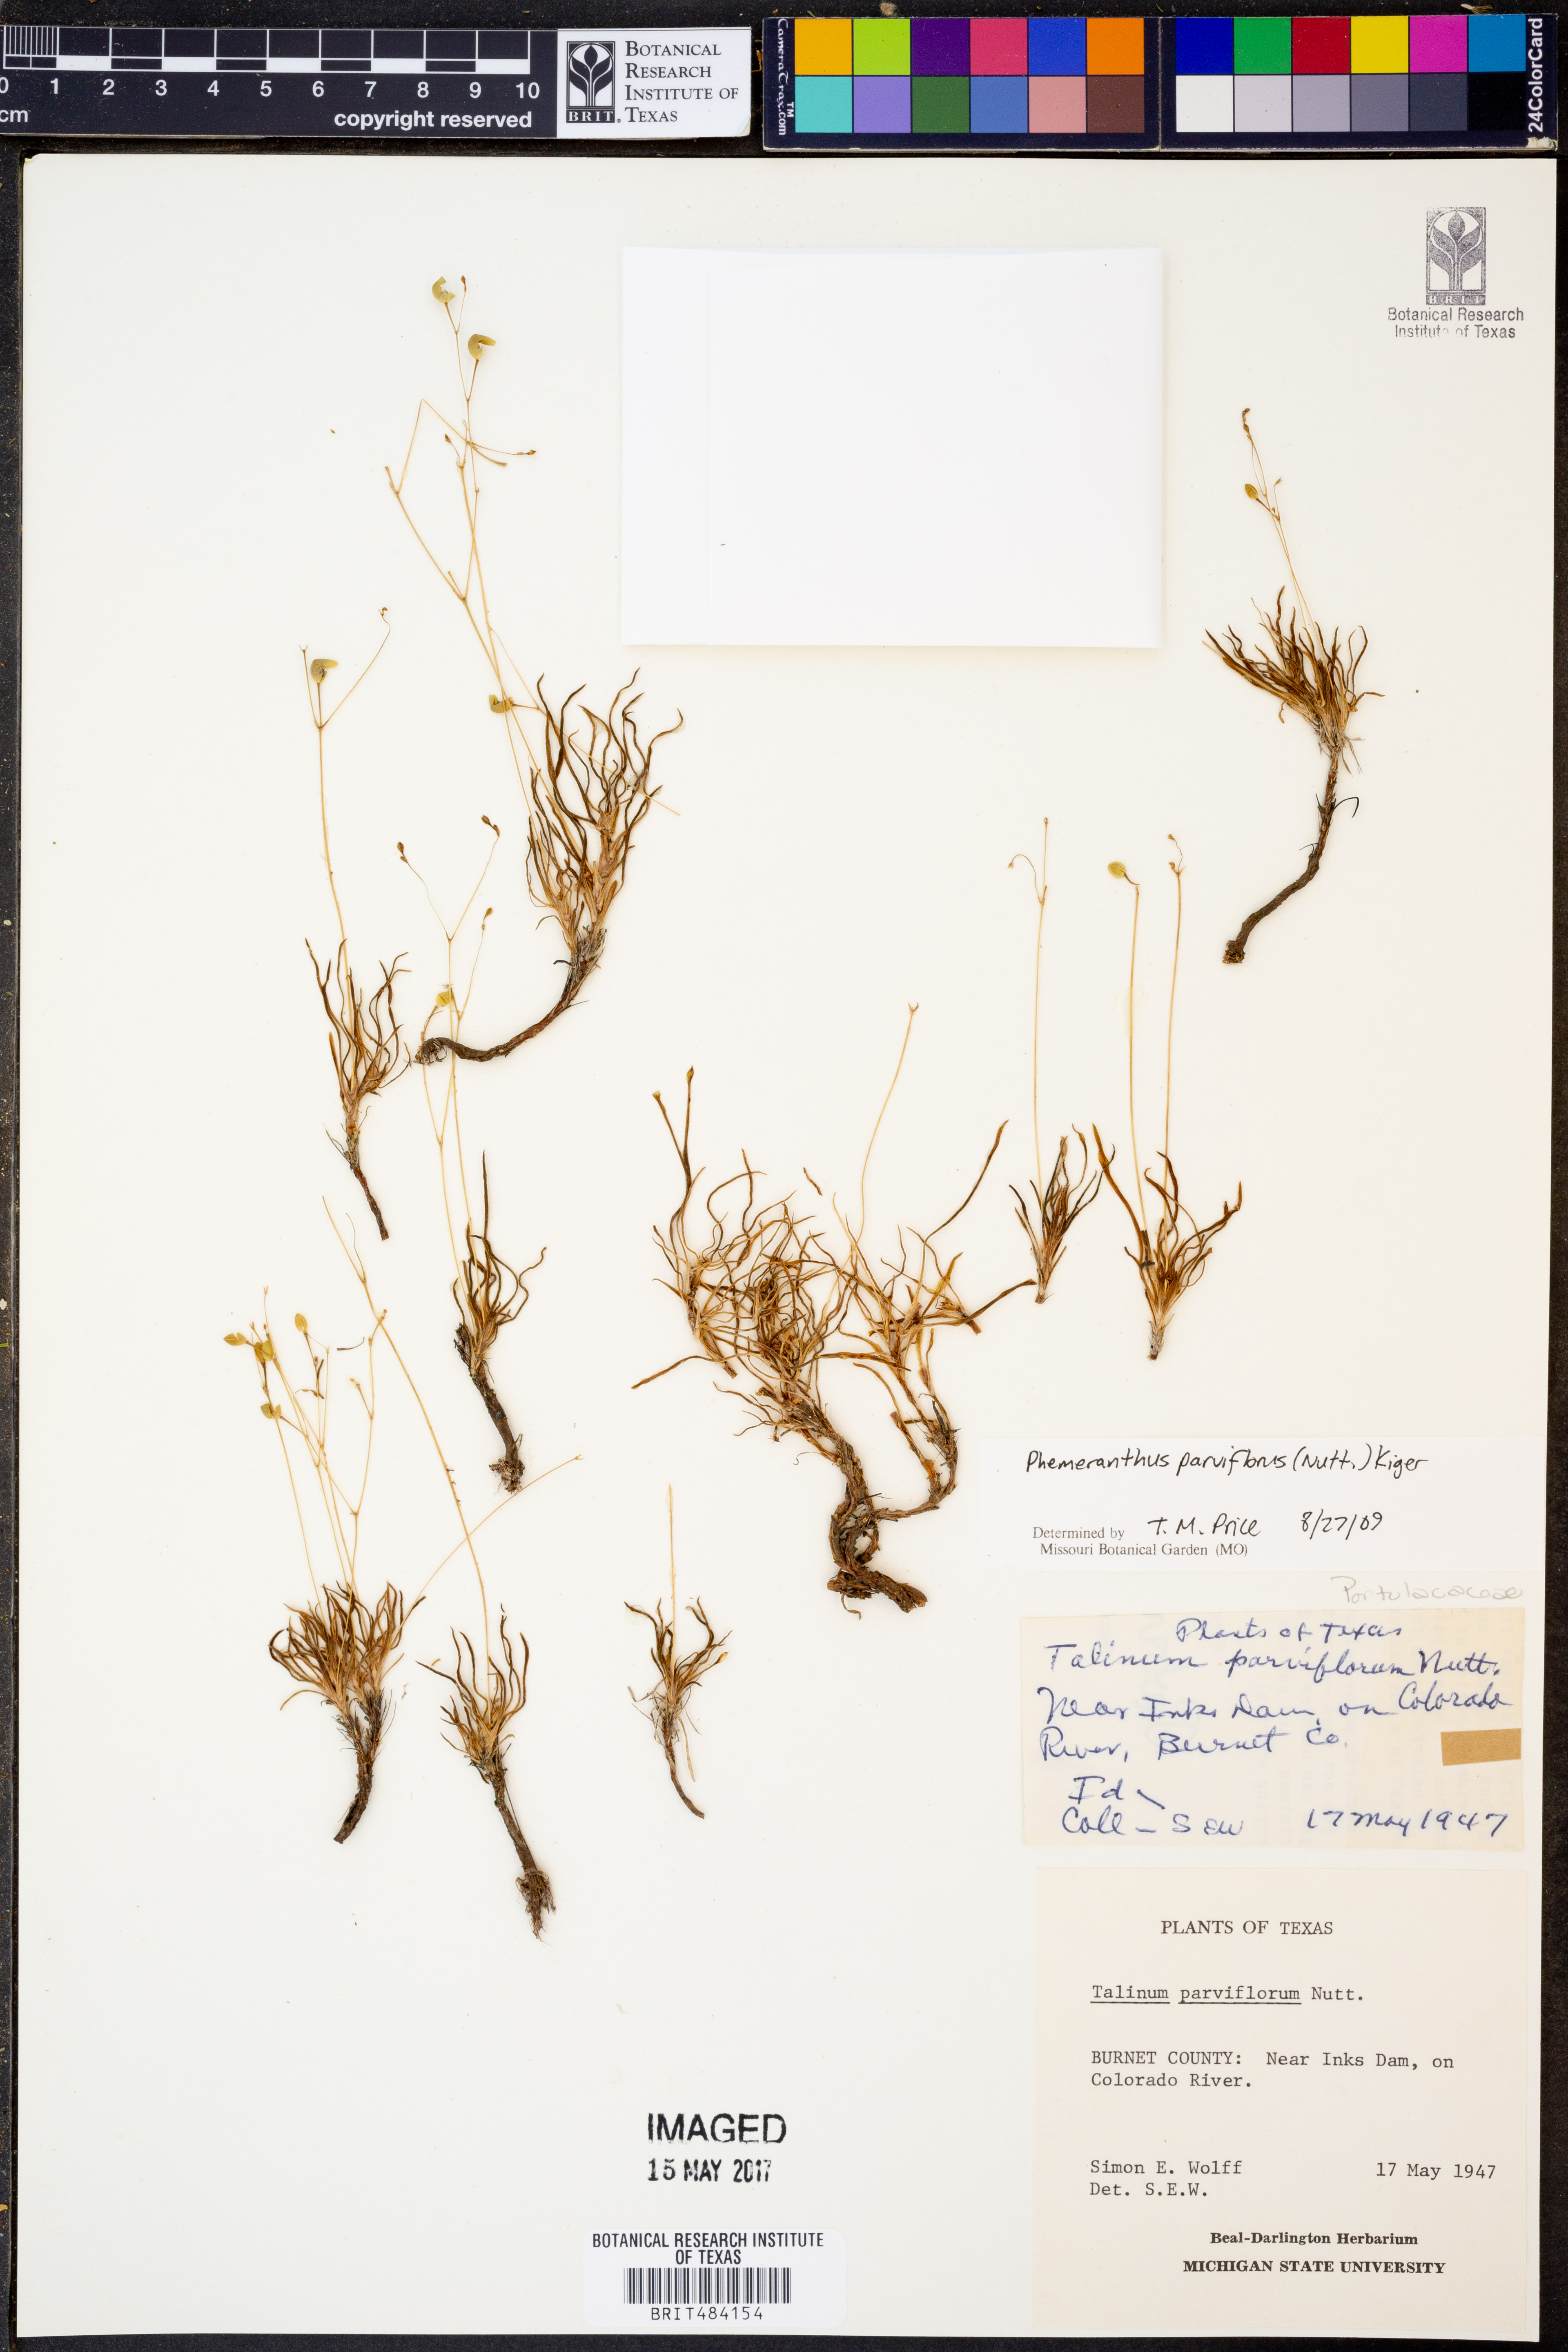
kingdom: Plantae
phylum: Tracheophyta
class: Magnoliopsida
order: Caryophyllales
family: Montiaceae
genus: Phemeranthus
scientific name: Phemeranthus parviflorus
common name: Sunbright
